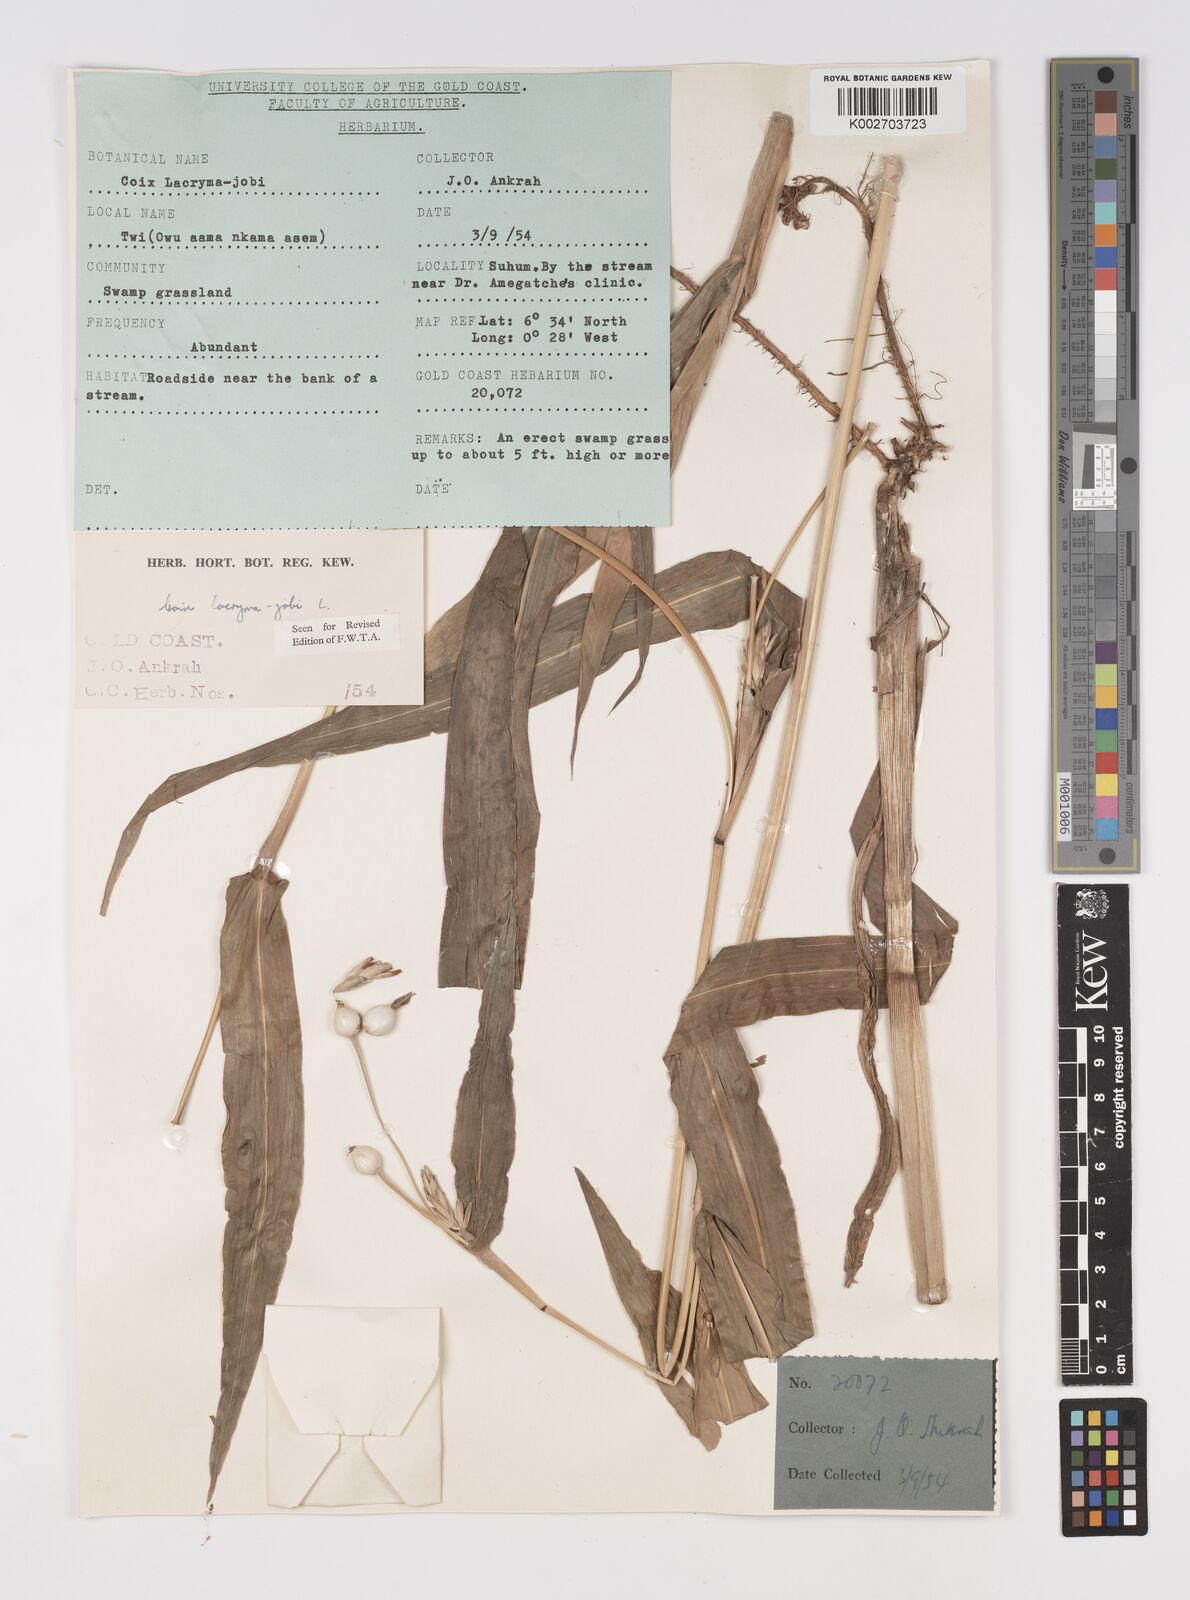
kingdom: Plantae
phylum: Tracheophyta
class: Liliopsida
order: Poales
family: Poaceae
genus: Coix
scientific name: Coix lacryma-jobi
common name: Job's tears
